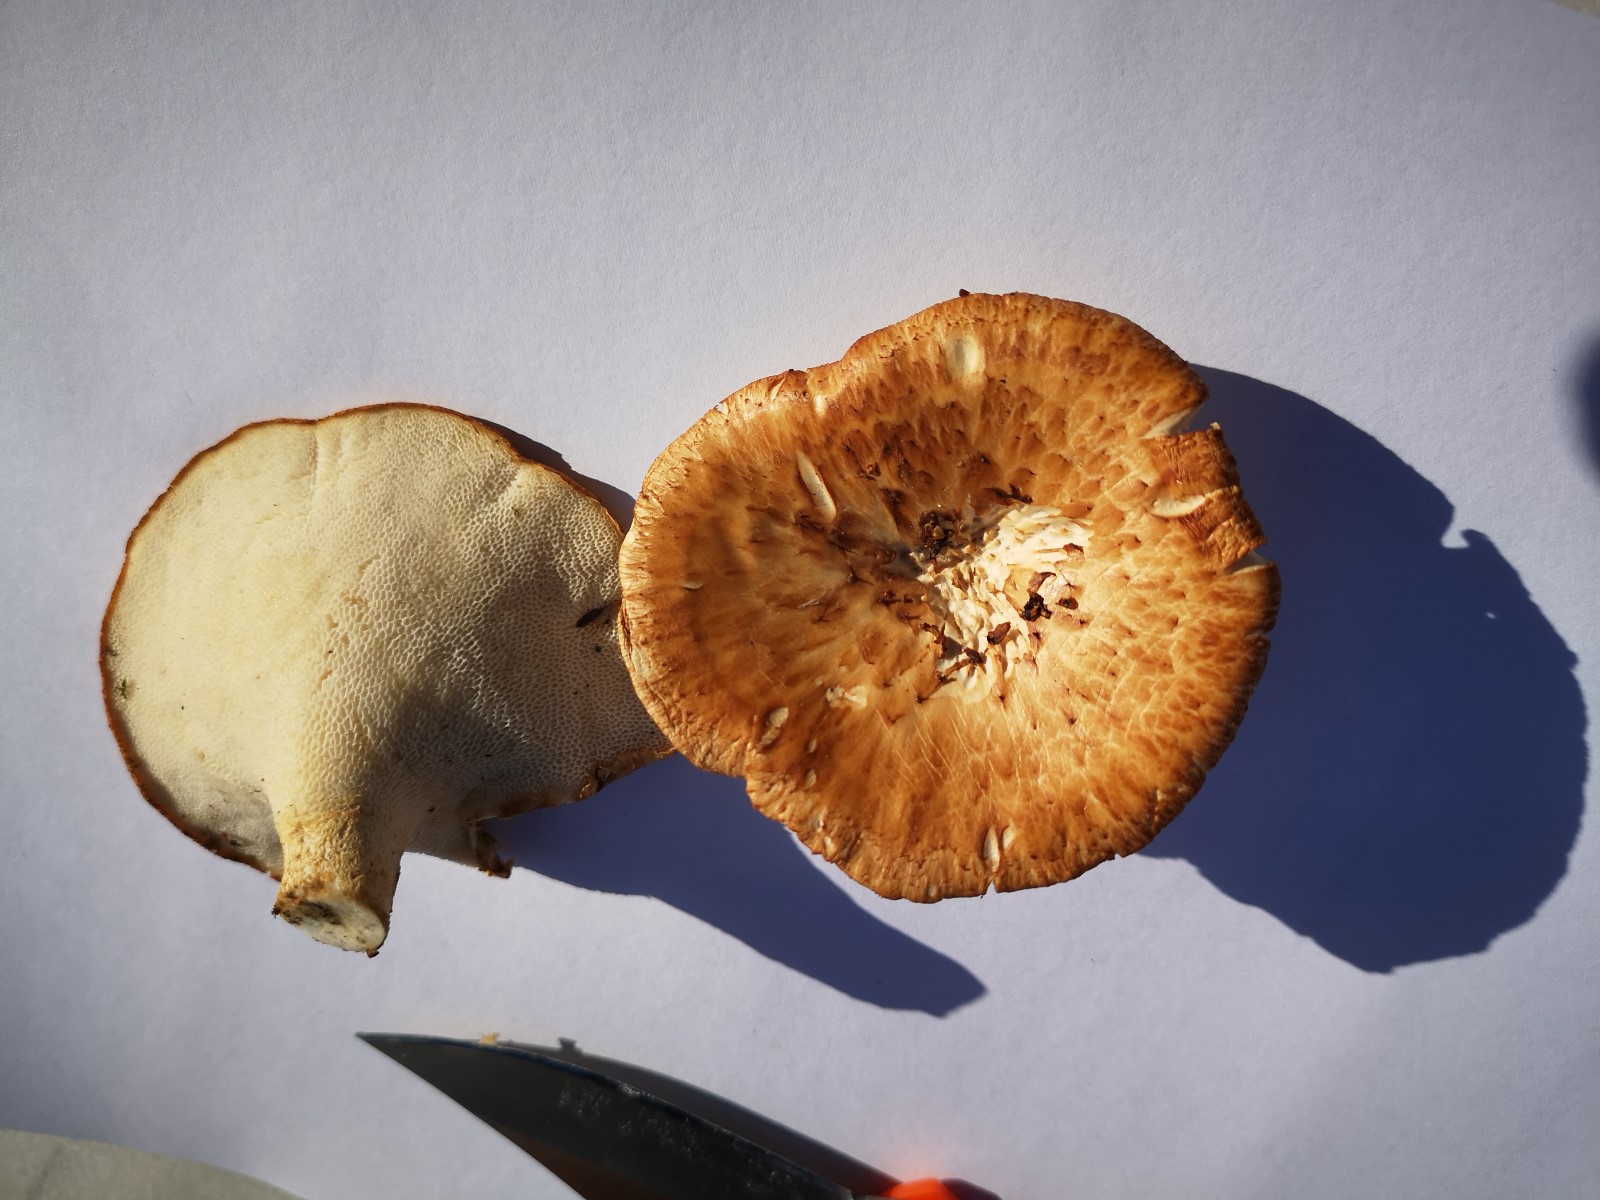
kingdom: Fungi
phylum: Basidiomycota
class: Agaricomycetes
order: Polyporales
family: Polyporaceae
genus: Polyporus
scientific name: Polyporus tuberaster
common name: knoldet stilkporesvamp
